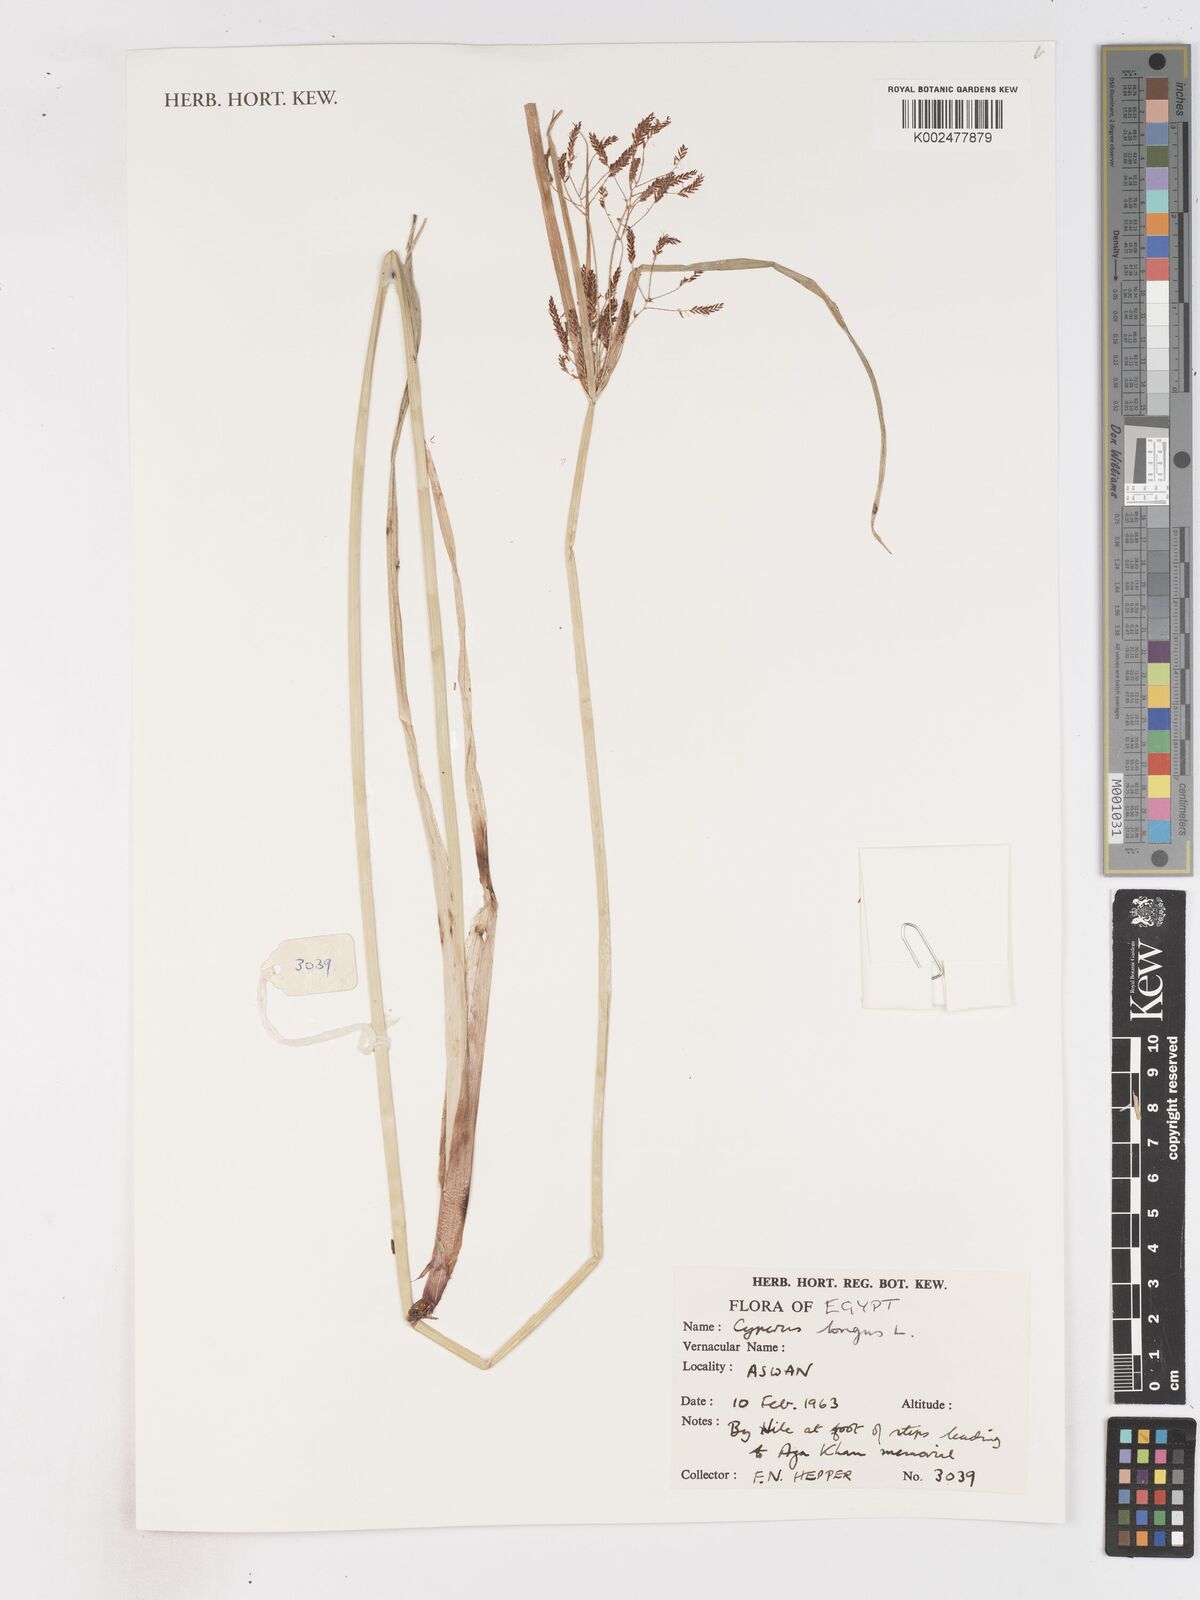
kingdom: Plantae
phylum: Tracheophyta
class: Liliopsida
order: Poales
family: Cyperaceae
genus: Cyperus
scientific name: Cyperus longus
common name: Galingale
